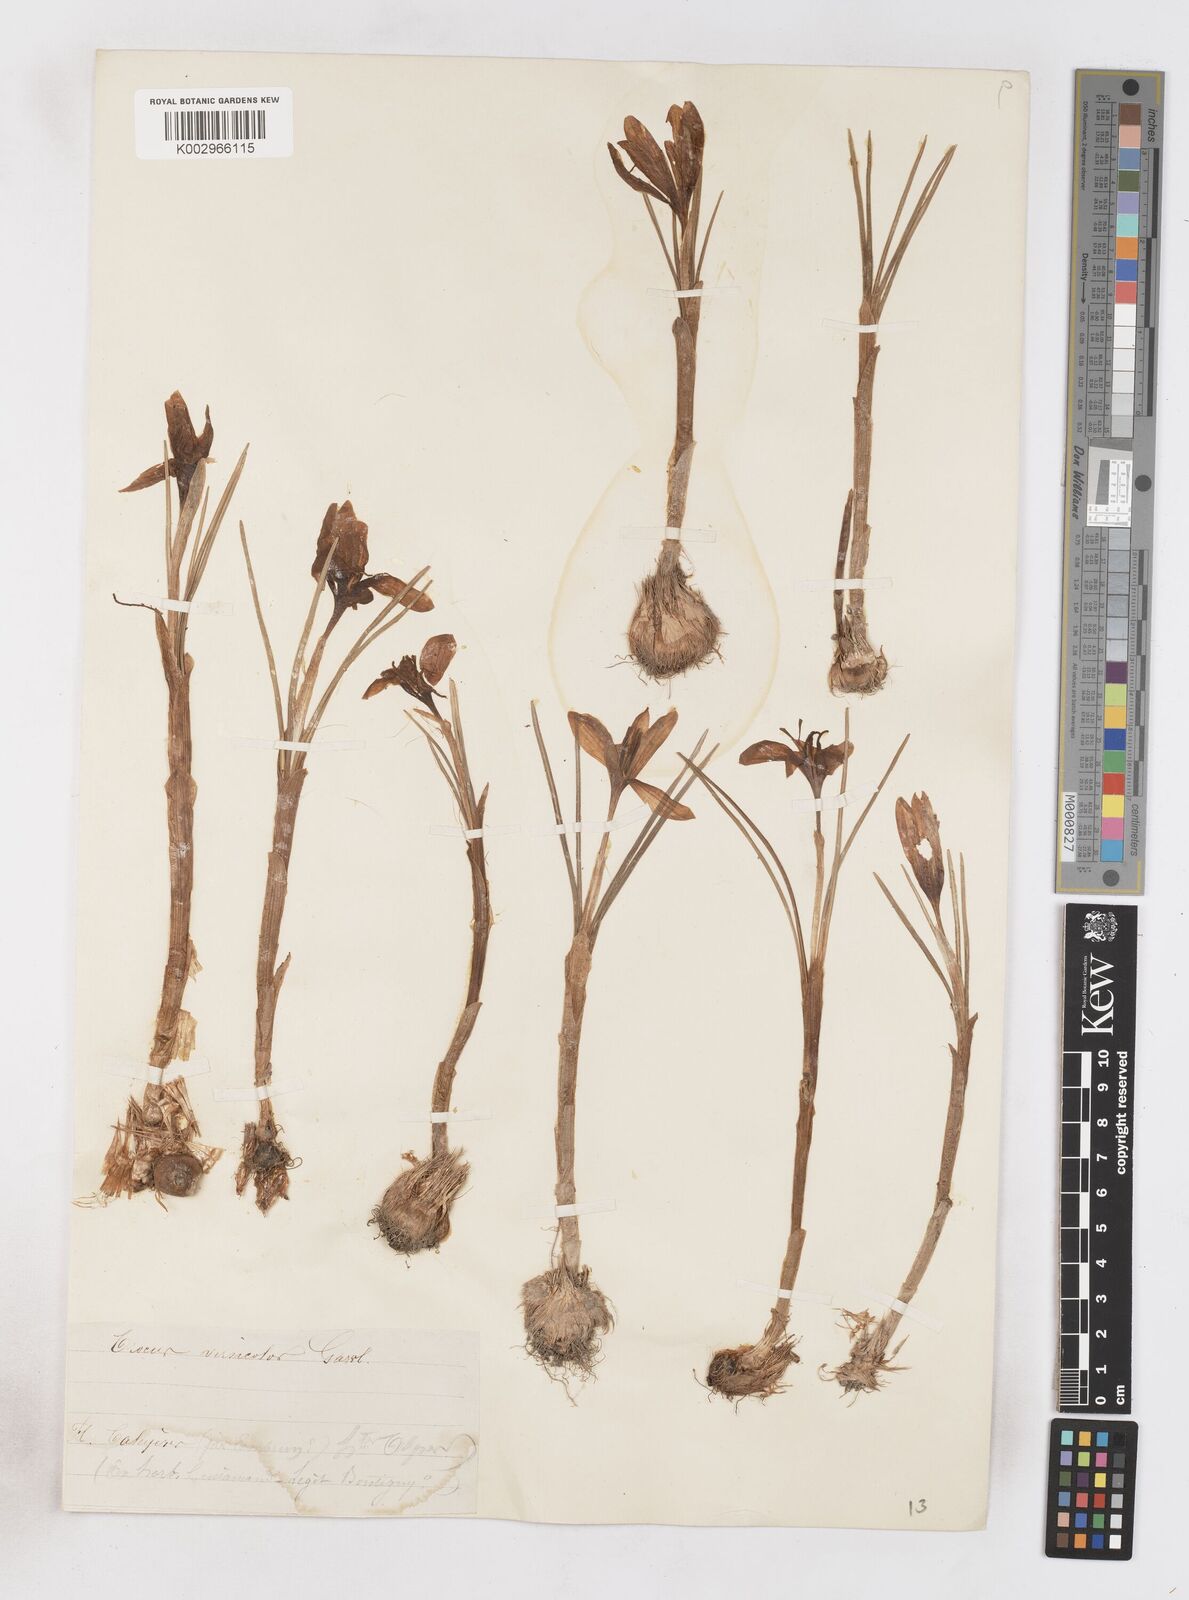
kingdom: Plantae
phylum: Tracheophyta
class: Liliopsida
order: Asparagales
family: Iridaceae
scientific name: Iridaceae
